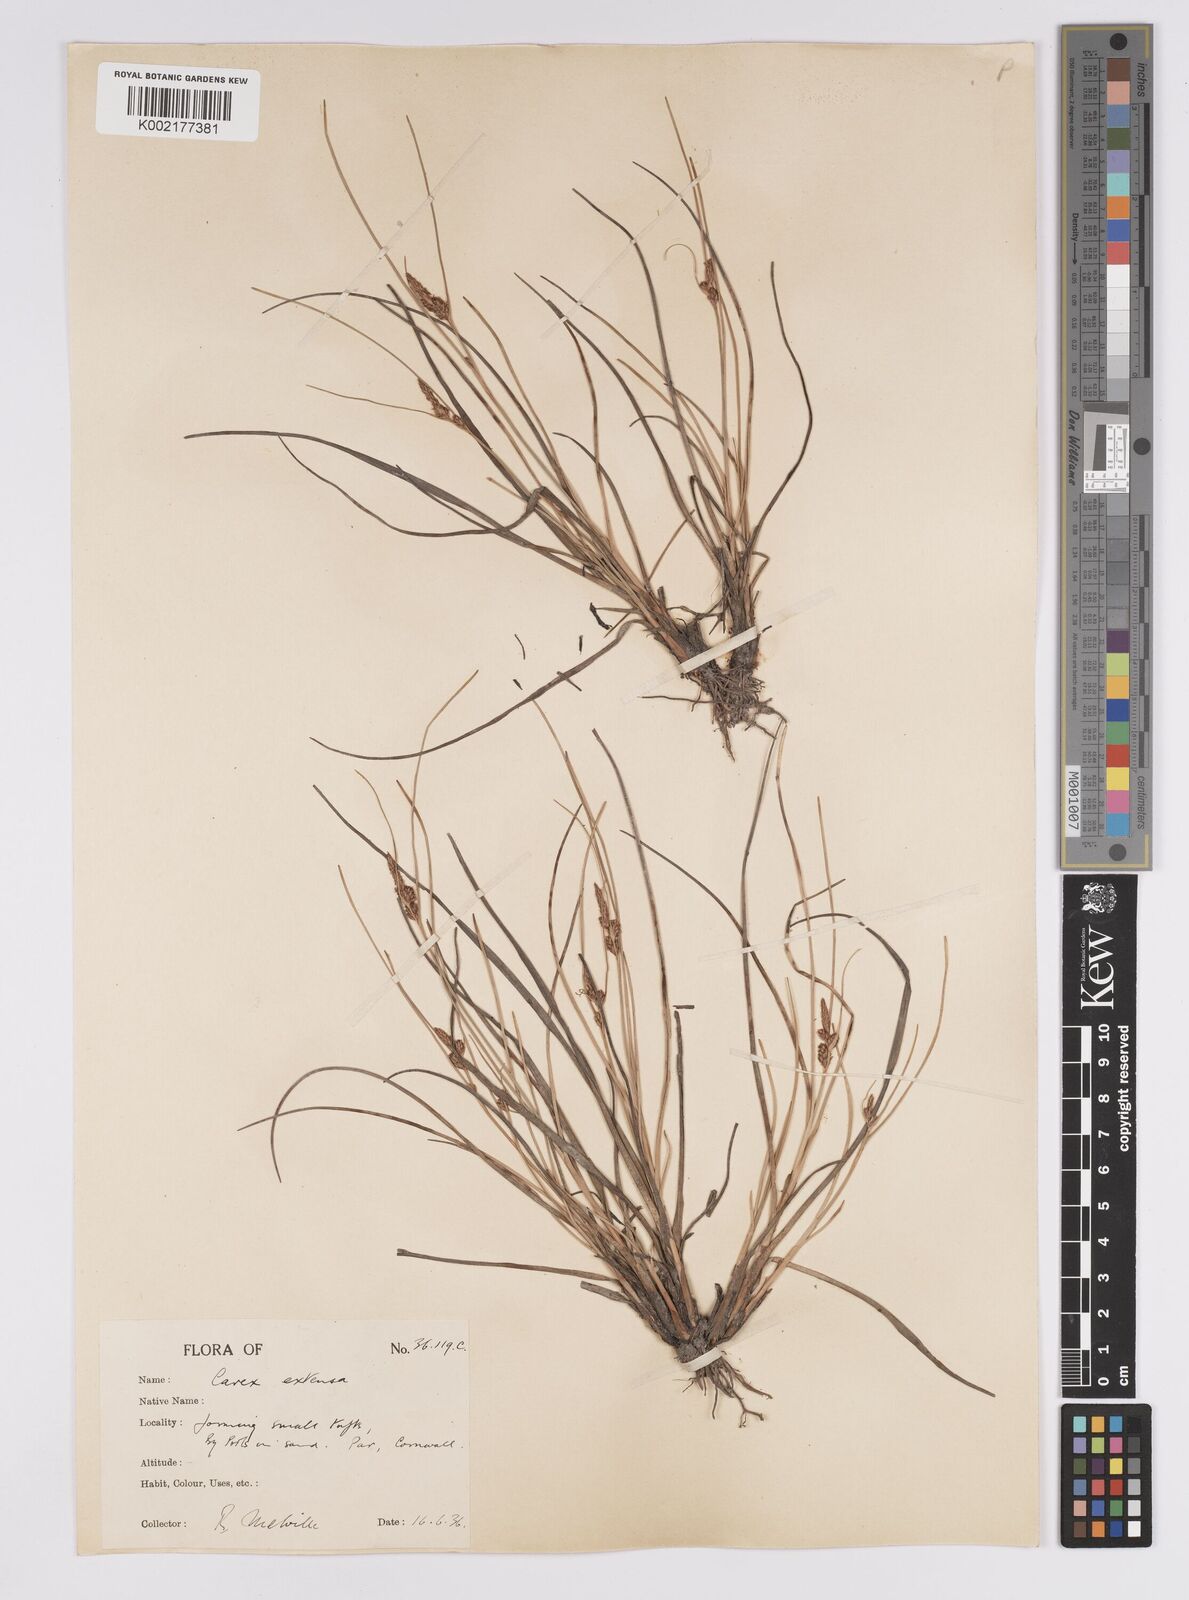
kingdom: Plantae
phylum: Tracheophyta
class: Liliopsida
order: Poales
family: Cyperaceae
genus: Carex
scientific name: Carex extensa
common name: Long-bracted sedge
